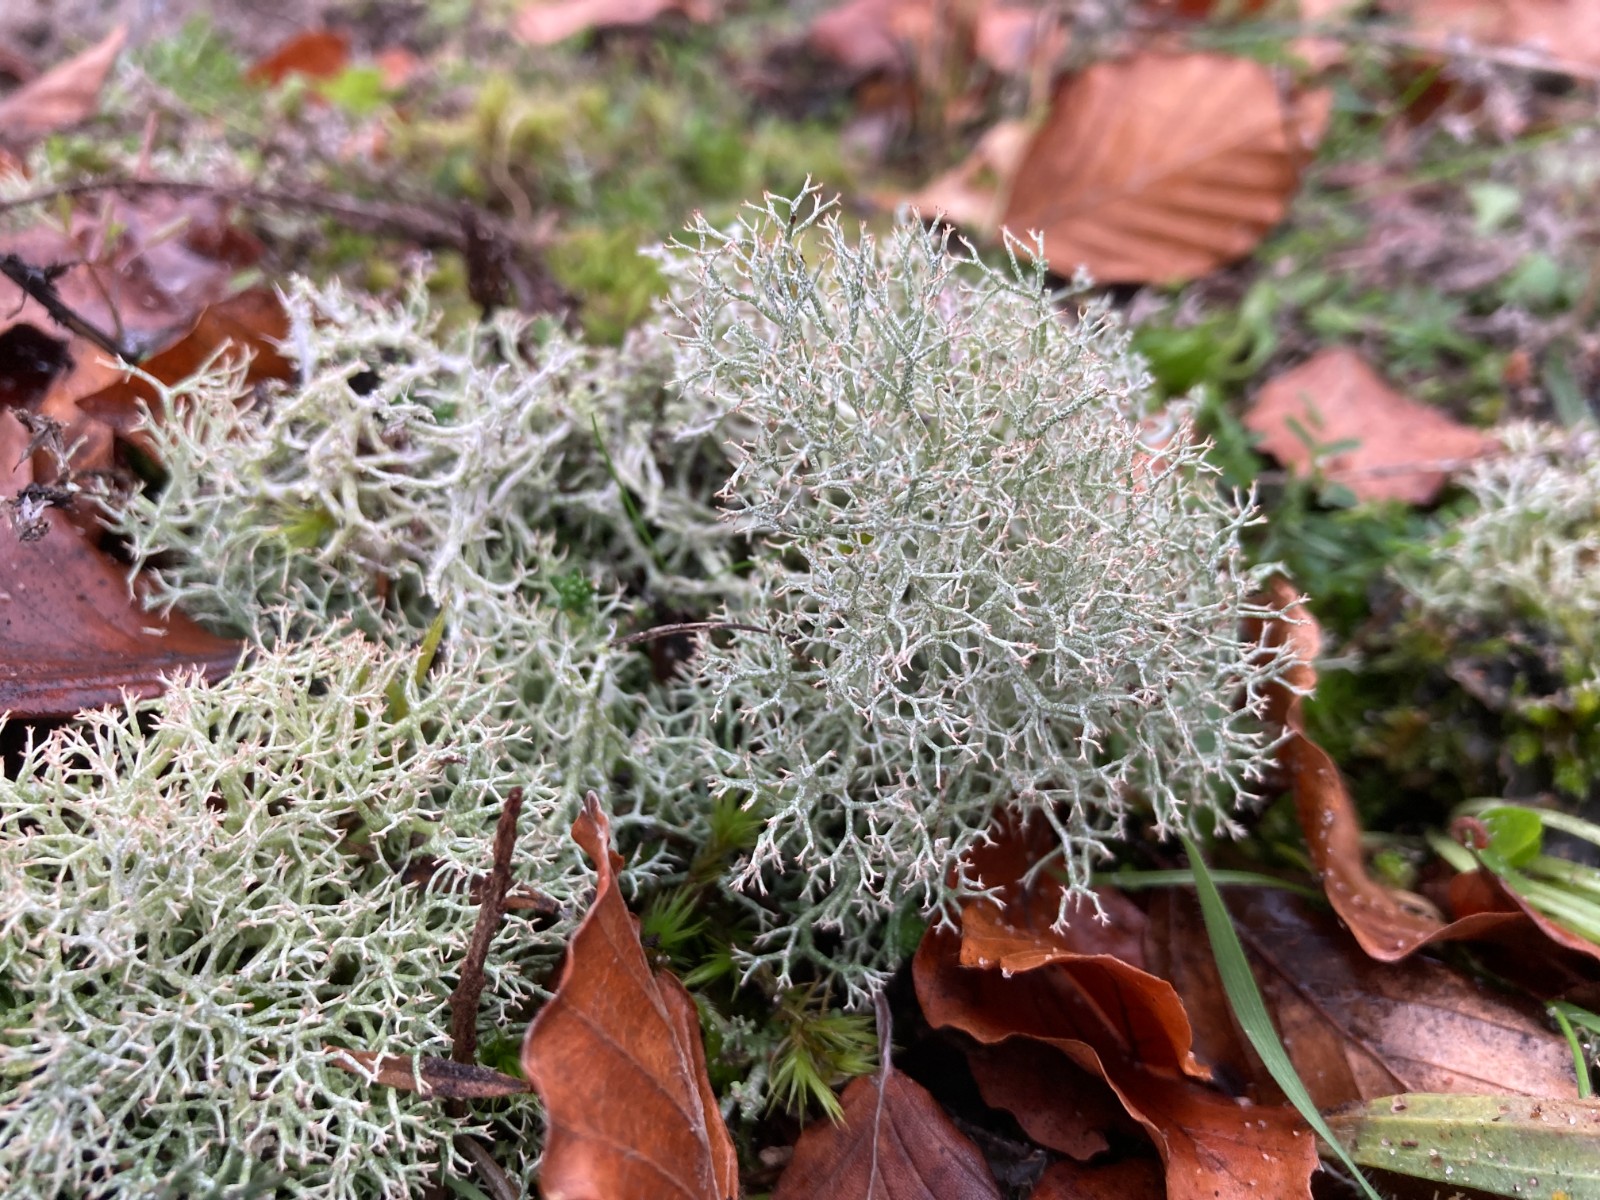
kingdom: Fungi
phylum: Ascomycota
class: Lecanoromycetes
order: Lecanorales
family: Cladoniaceae
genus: Cladonia
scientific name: Cladonia portentosa
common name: hede-rensdyrlav
